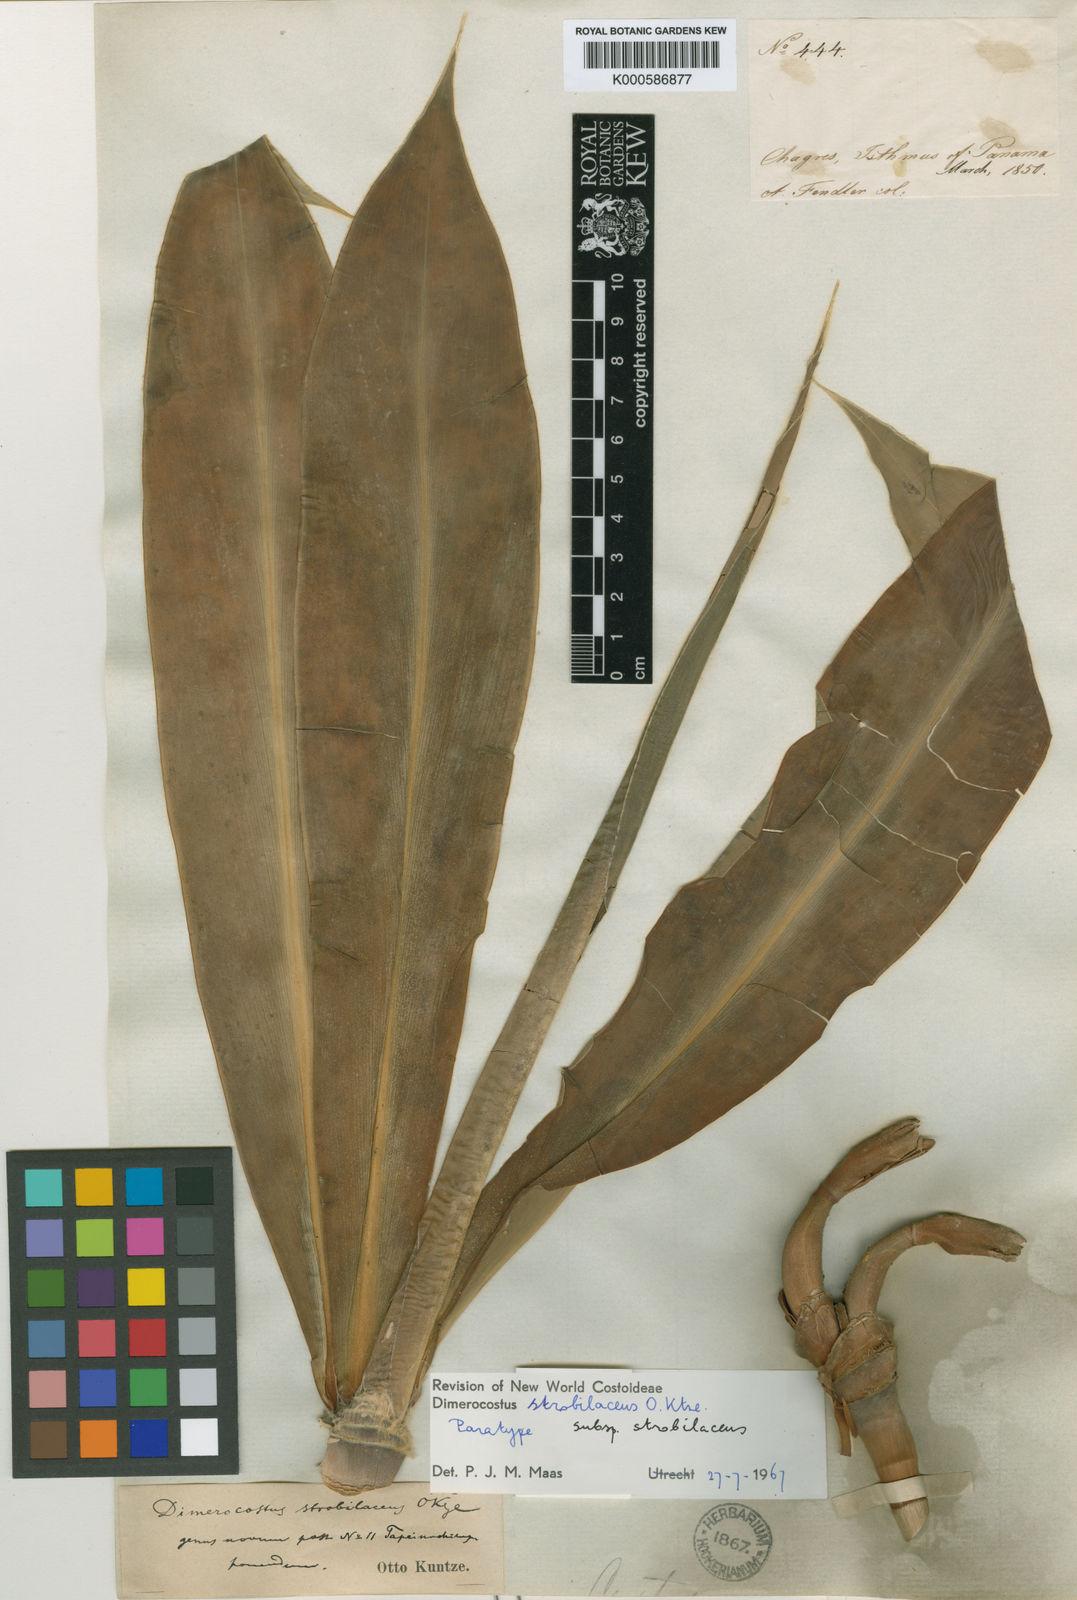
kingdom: Plantae
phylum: Tracheophyta
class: Liliopsida
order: Zingiberales
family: Costaceae
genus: Dimerocostus
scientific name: Dimerocostus strobilaceus
